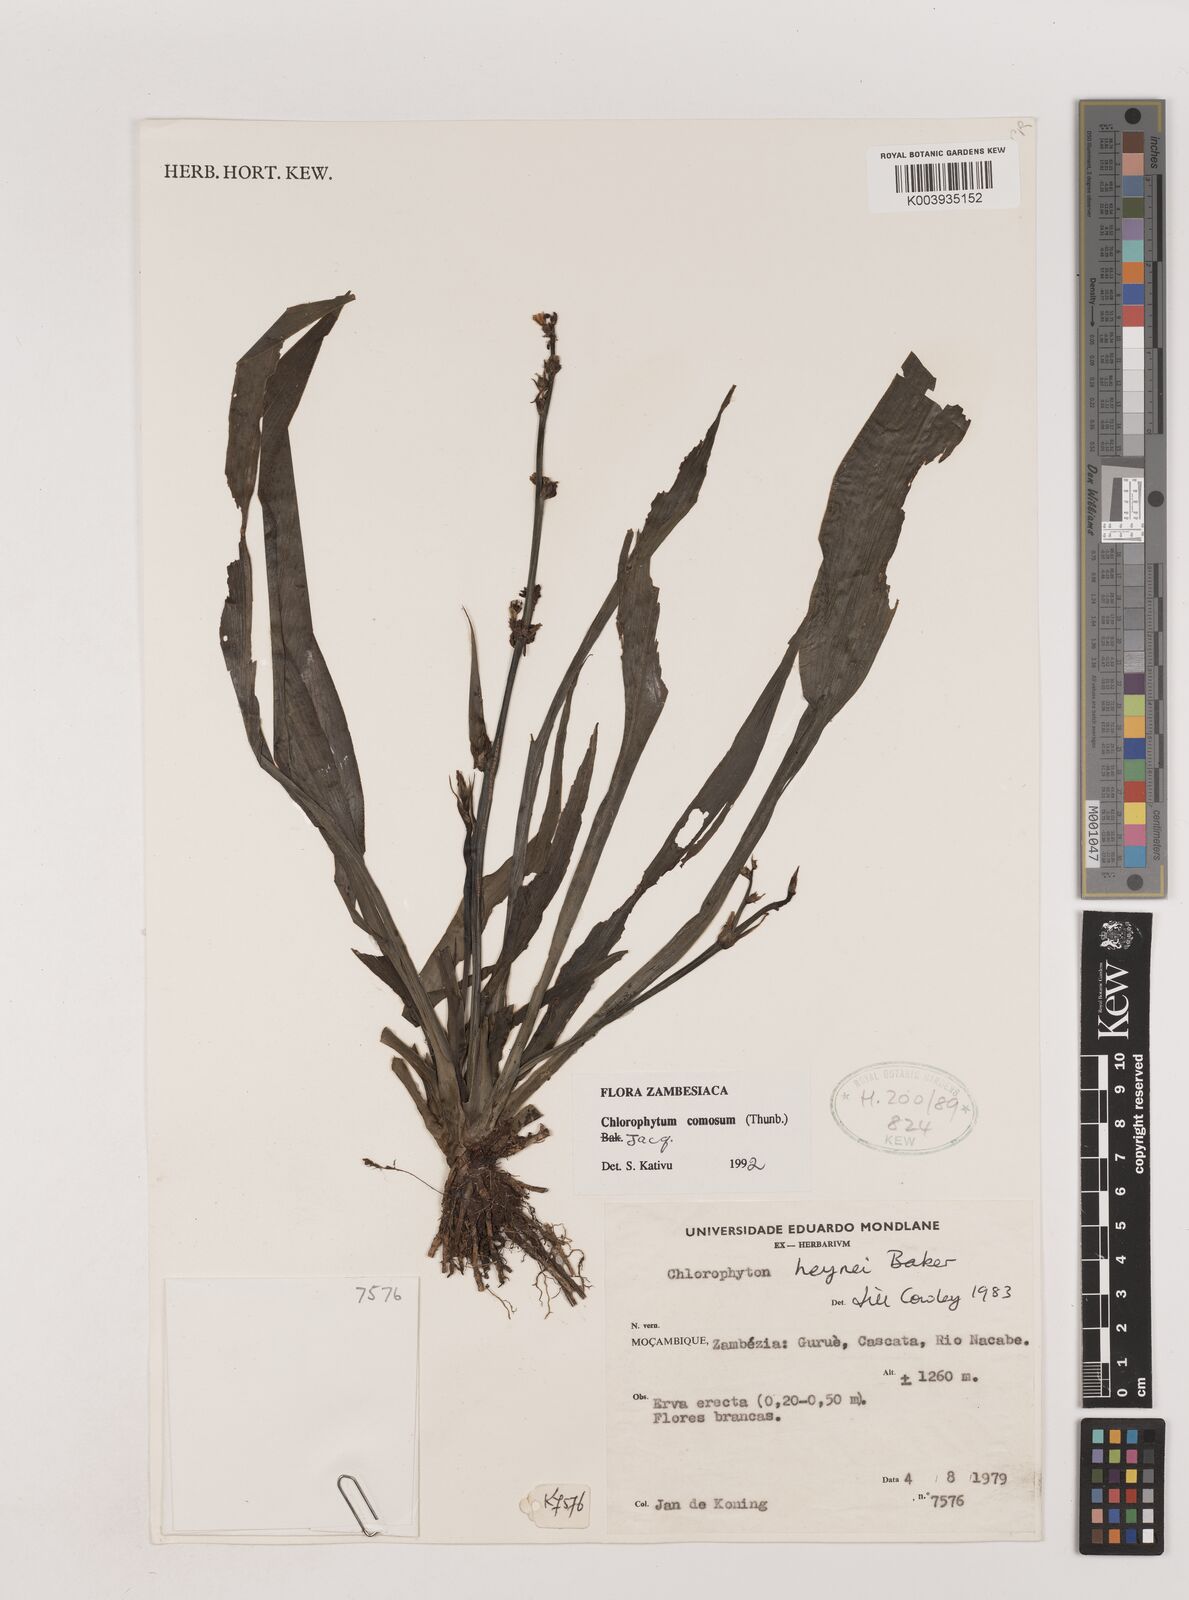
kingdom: Plantae
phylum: Tracheophyta
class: Liliopsida
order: Asparagales
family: Asparagaceae
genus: Chlorophytum
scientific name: Chlorophytum comosum
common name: Spider plant
